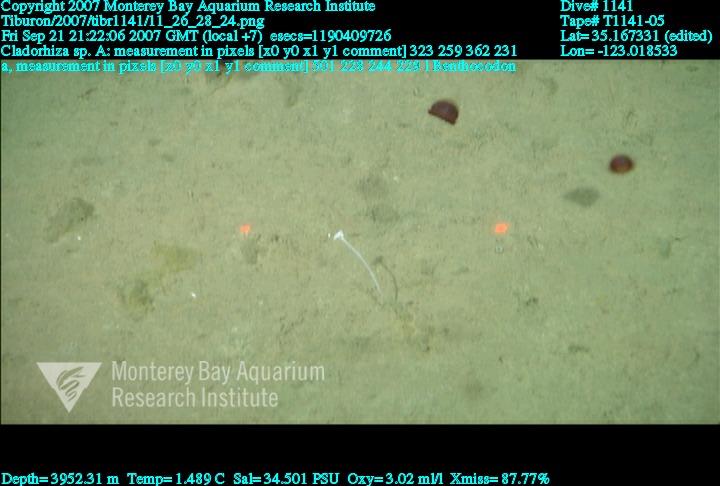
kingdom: Animalia
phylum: Porifera
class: Demospongiae
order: Poecilosclerida
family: Cladorhizidae
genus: Cladorhiza
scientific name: Cladorhiza
